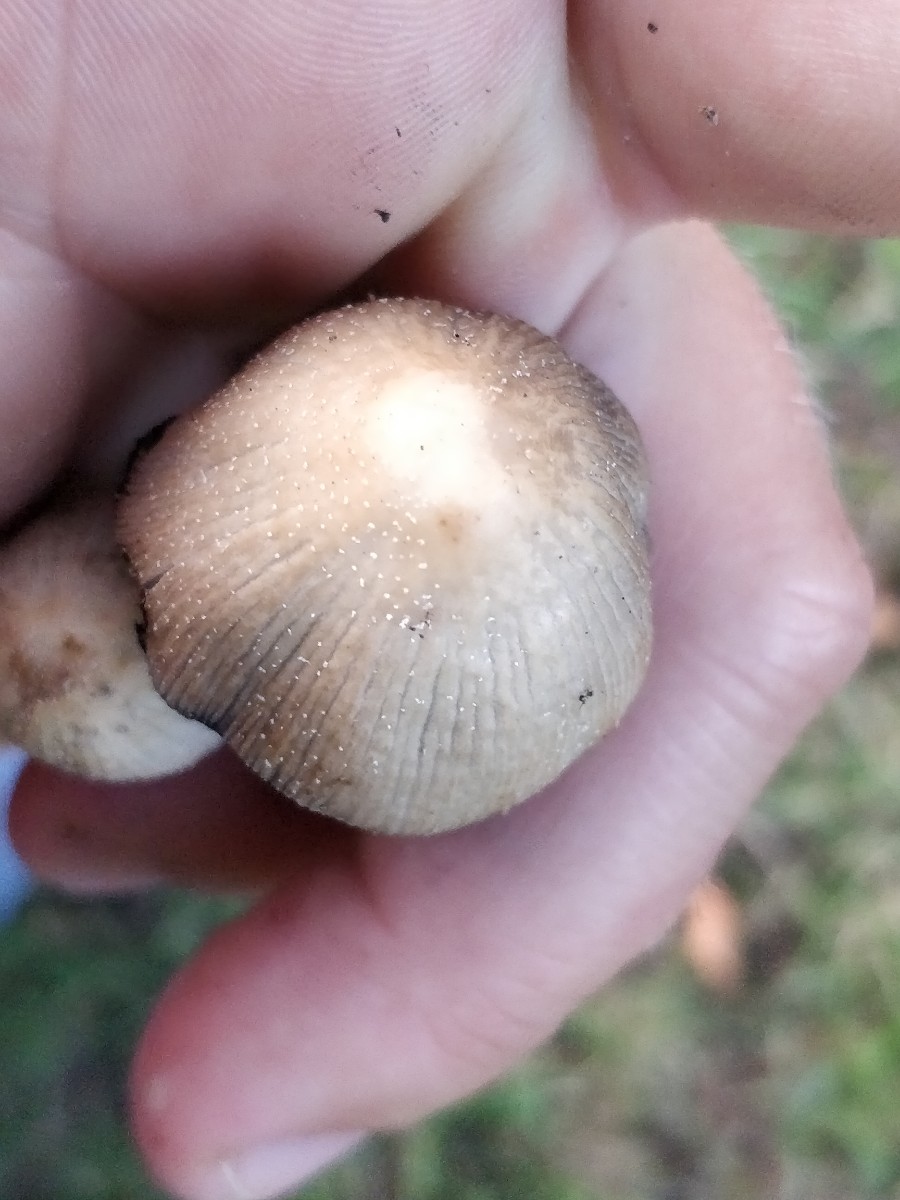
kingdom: Fungi
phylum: Basidiomycota
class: Agaricomycetes
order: Agaricales
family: Psathyrellaceae
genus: Coprinellus
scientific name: Coprinellus micaceus
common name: glimmer-blækhat
